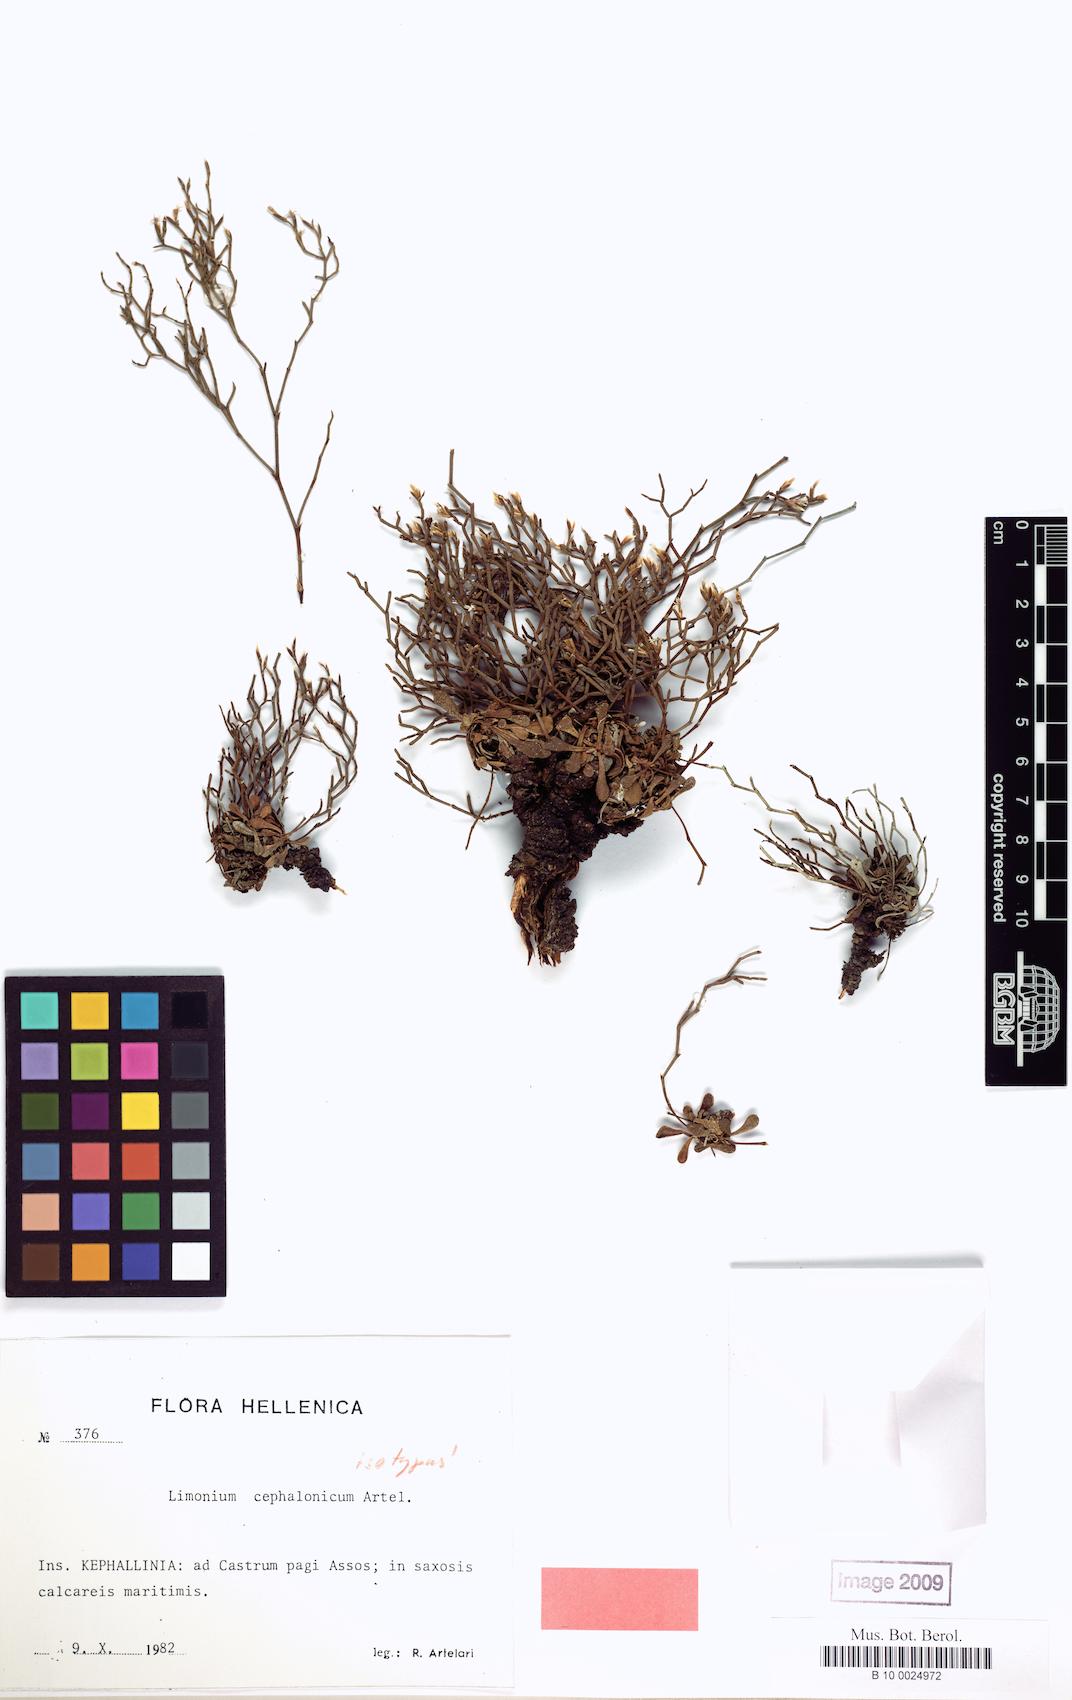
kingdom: Plantae
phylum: Tracheophyta
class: Magnoliopsida
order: Caryophyllales
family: Plumbaginaceae
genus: Limonium
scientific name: Limonium cephalonicum
